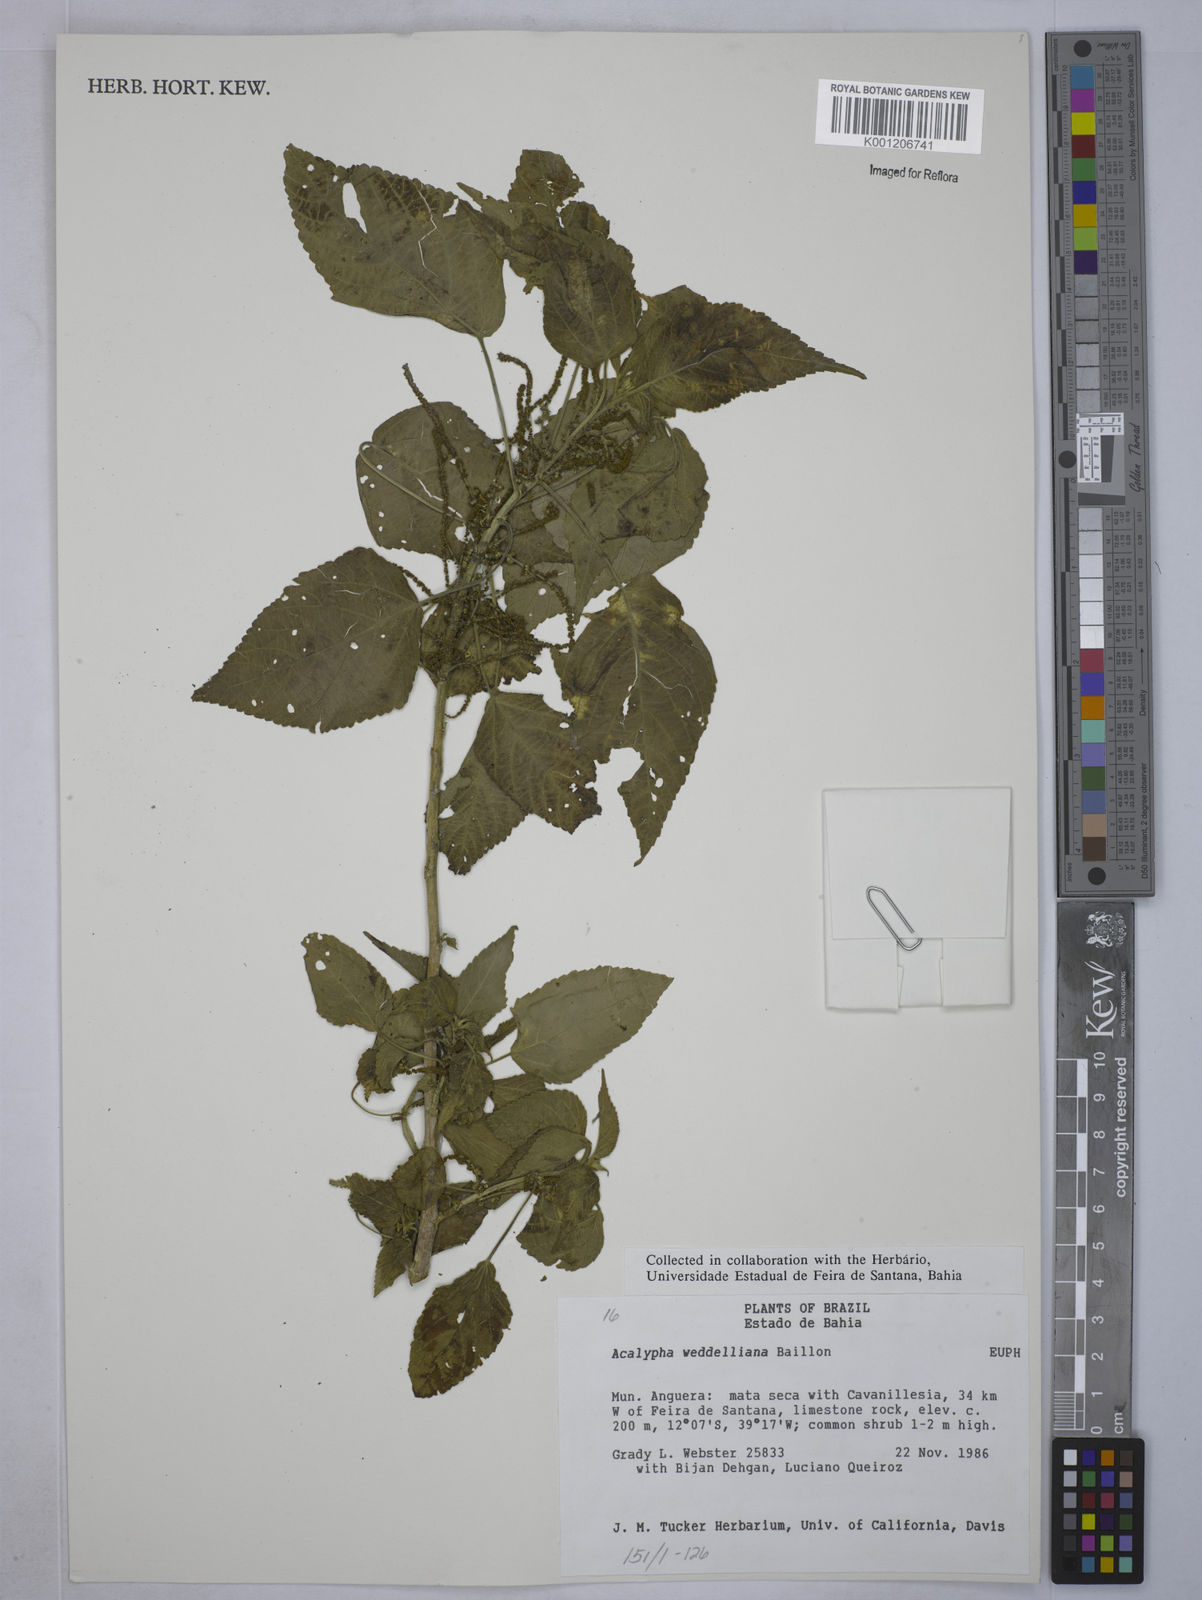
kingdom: Plantae
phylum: Tracheophyta
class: Magnoliopsida
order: Malpighiales
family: Euphorbiaceae
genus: Acalypha
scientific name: Acalypha weddelliana
